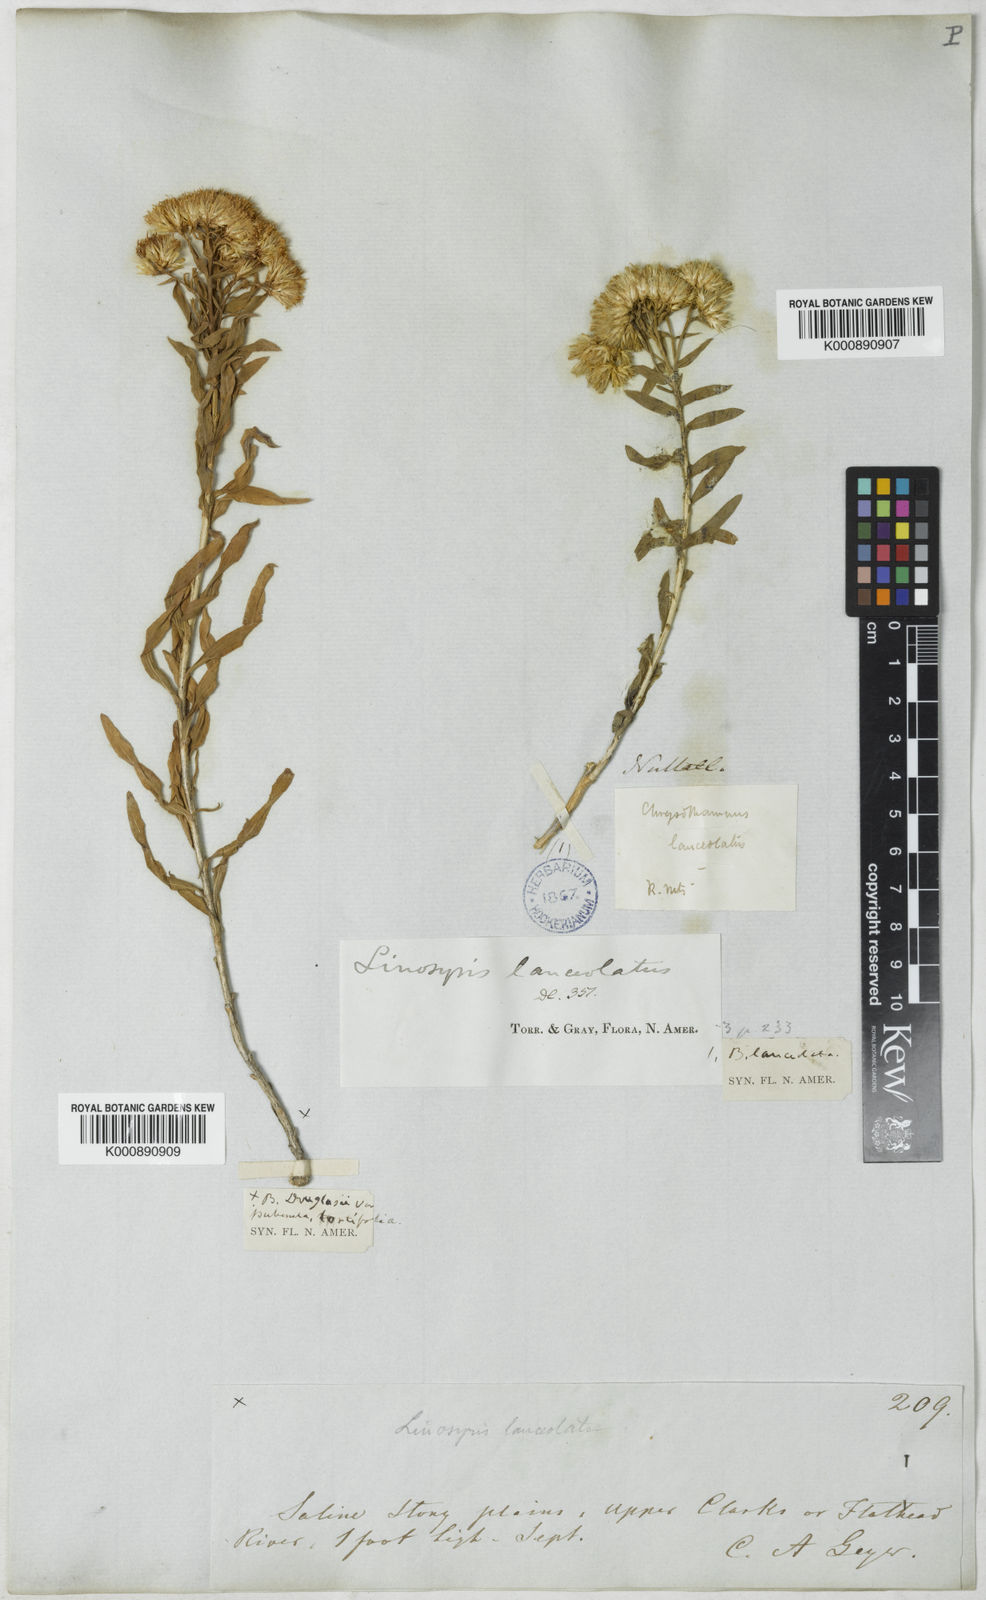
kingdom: Plantae
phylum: Tracheophyta
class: Magnoliopsida
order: Asterales
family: Asteraceae
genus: Chrysothamnus
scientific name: Chrysothamnus viscidiflorus
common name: Yellow rabbitbrush
